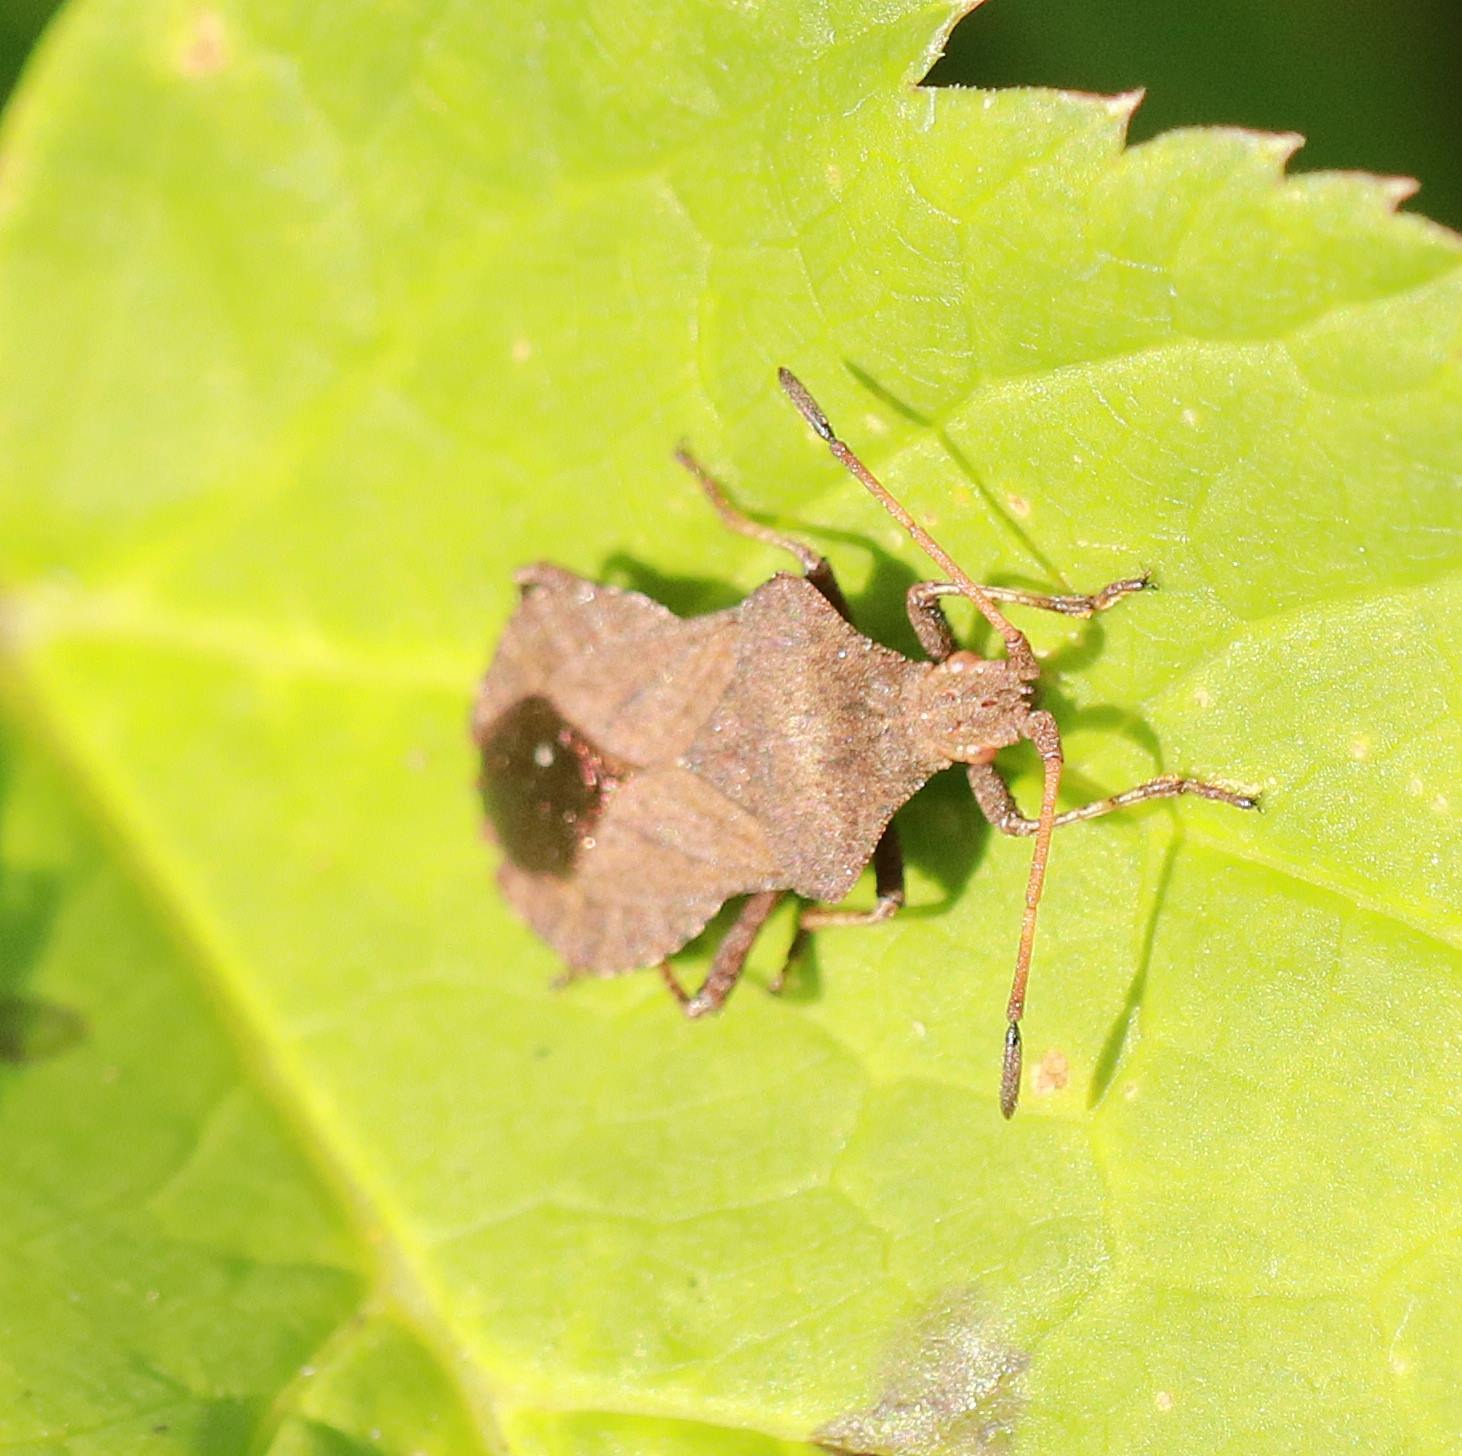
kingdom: Animalia
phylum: Arthropoda
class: Insecta
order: Hemiptera
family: Coreidae
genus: Coreus
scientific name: Coreus marginatus
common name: Skræppetæge
